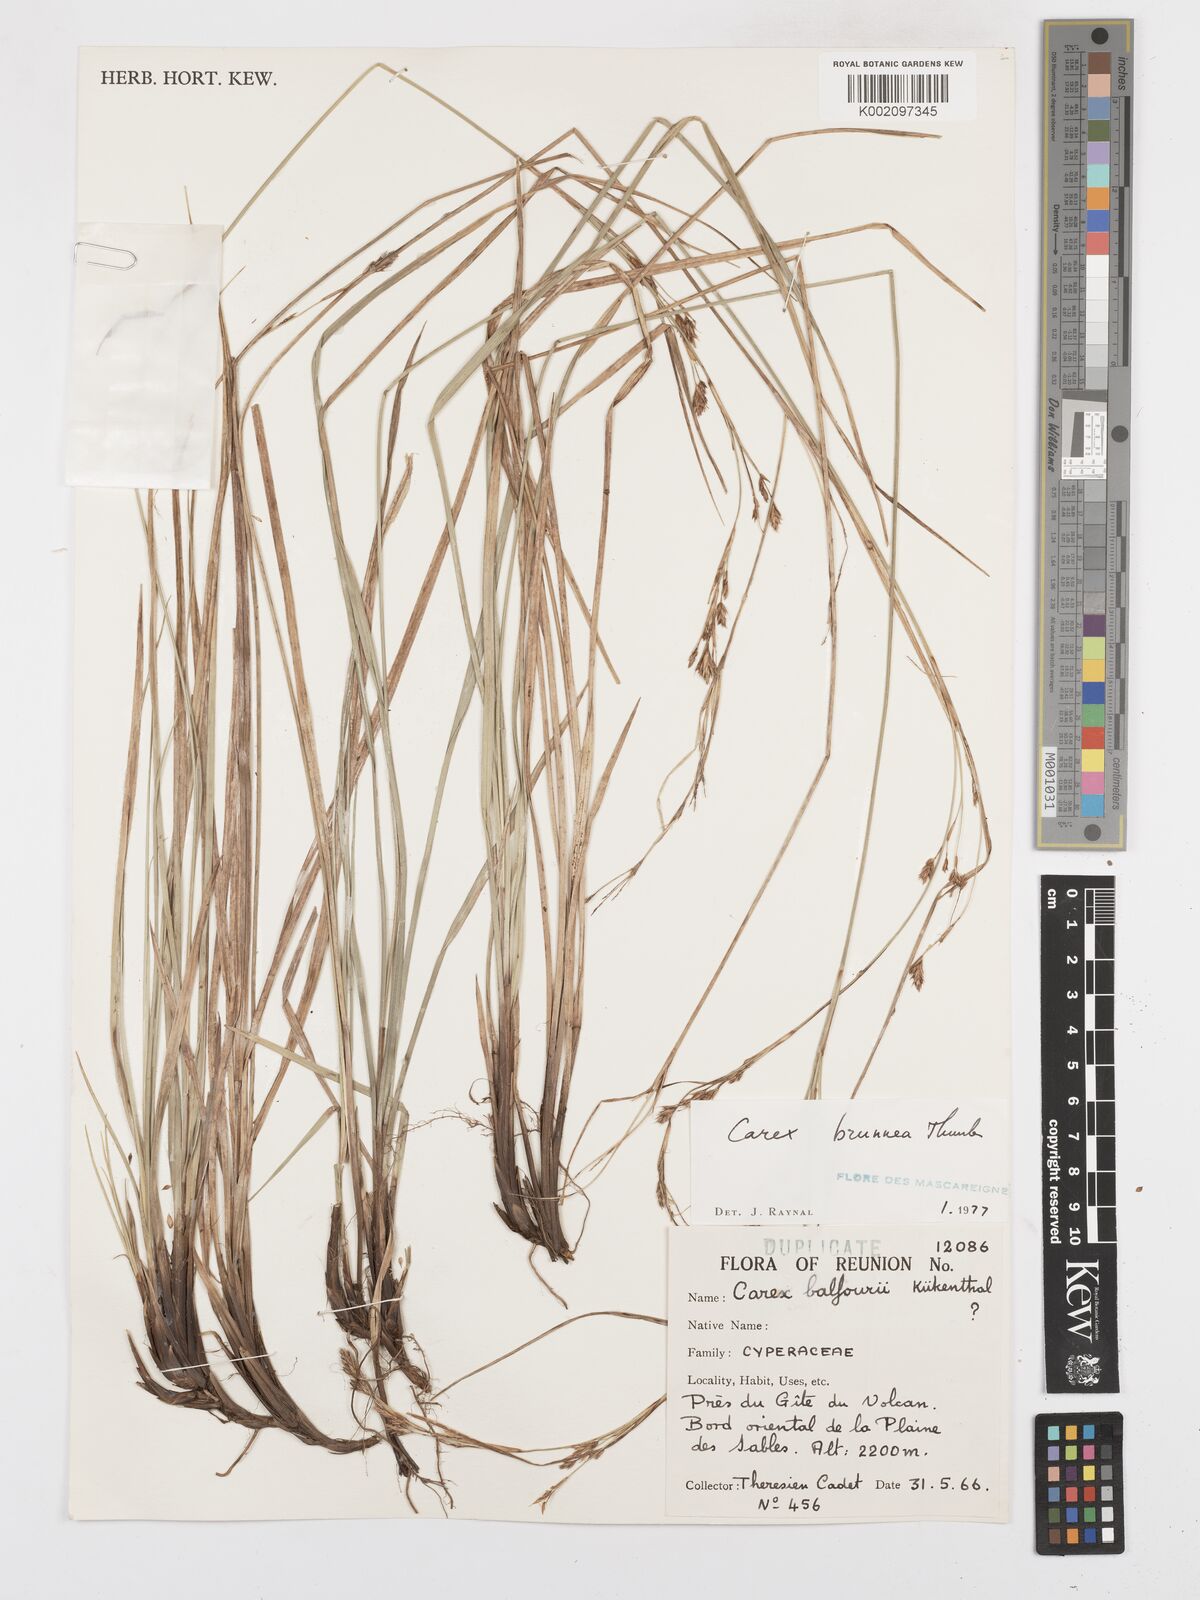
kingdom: Plantae
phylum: Tracheophyta
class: Liliopsida
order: Poales
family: Cyperaceae
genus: Carex
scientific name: Carex brunnea
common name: Greater brown sedge
